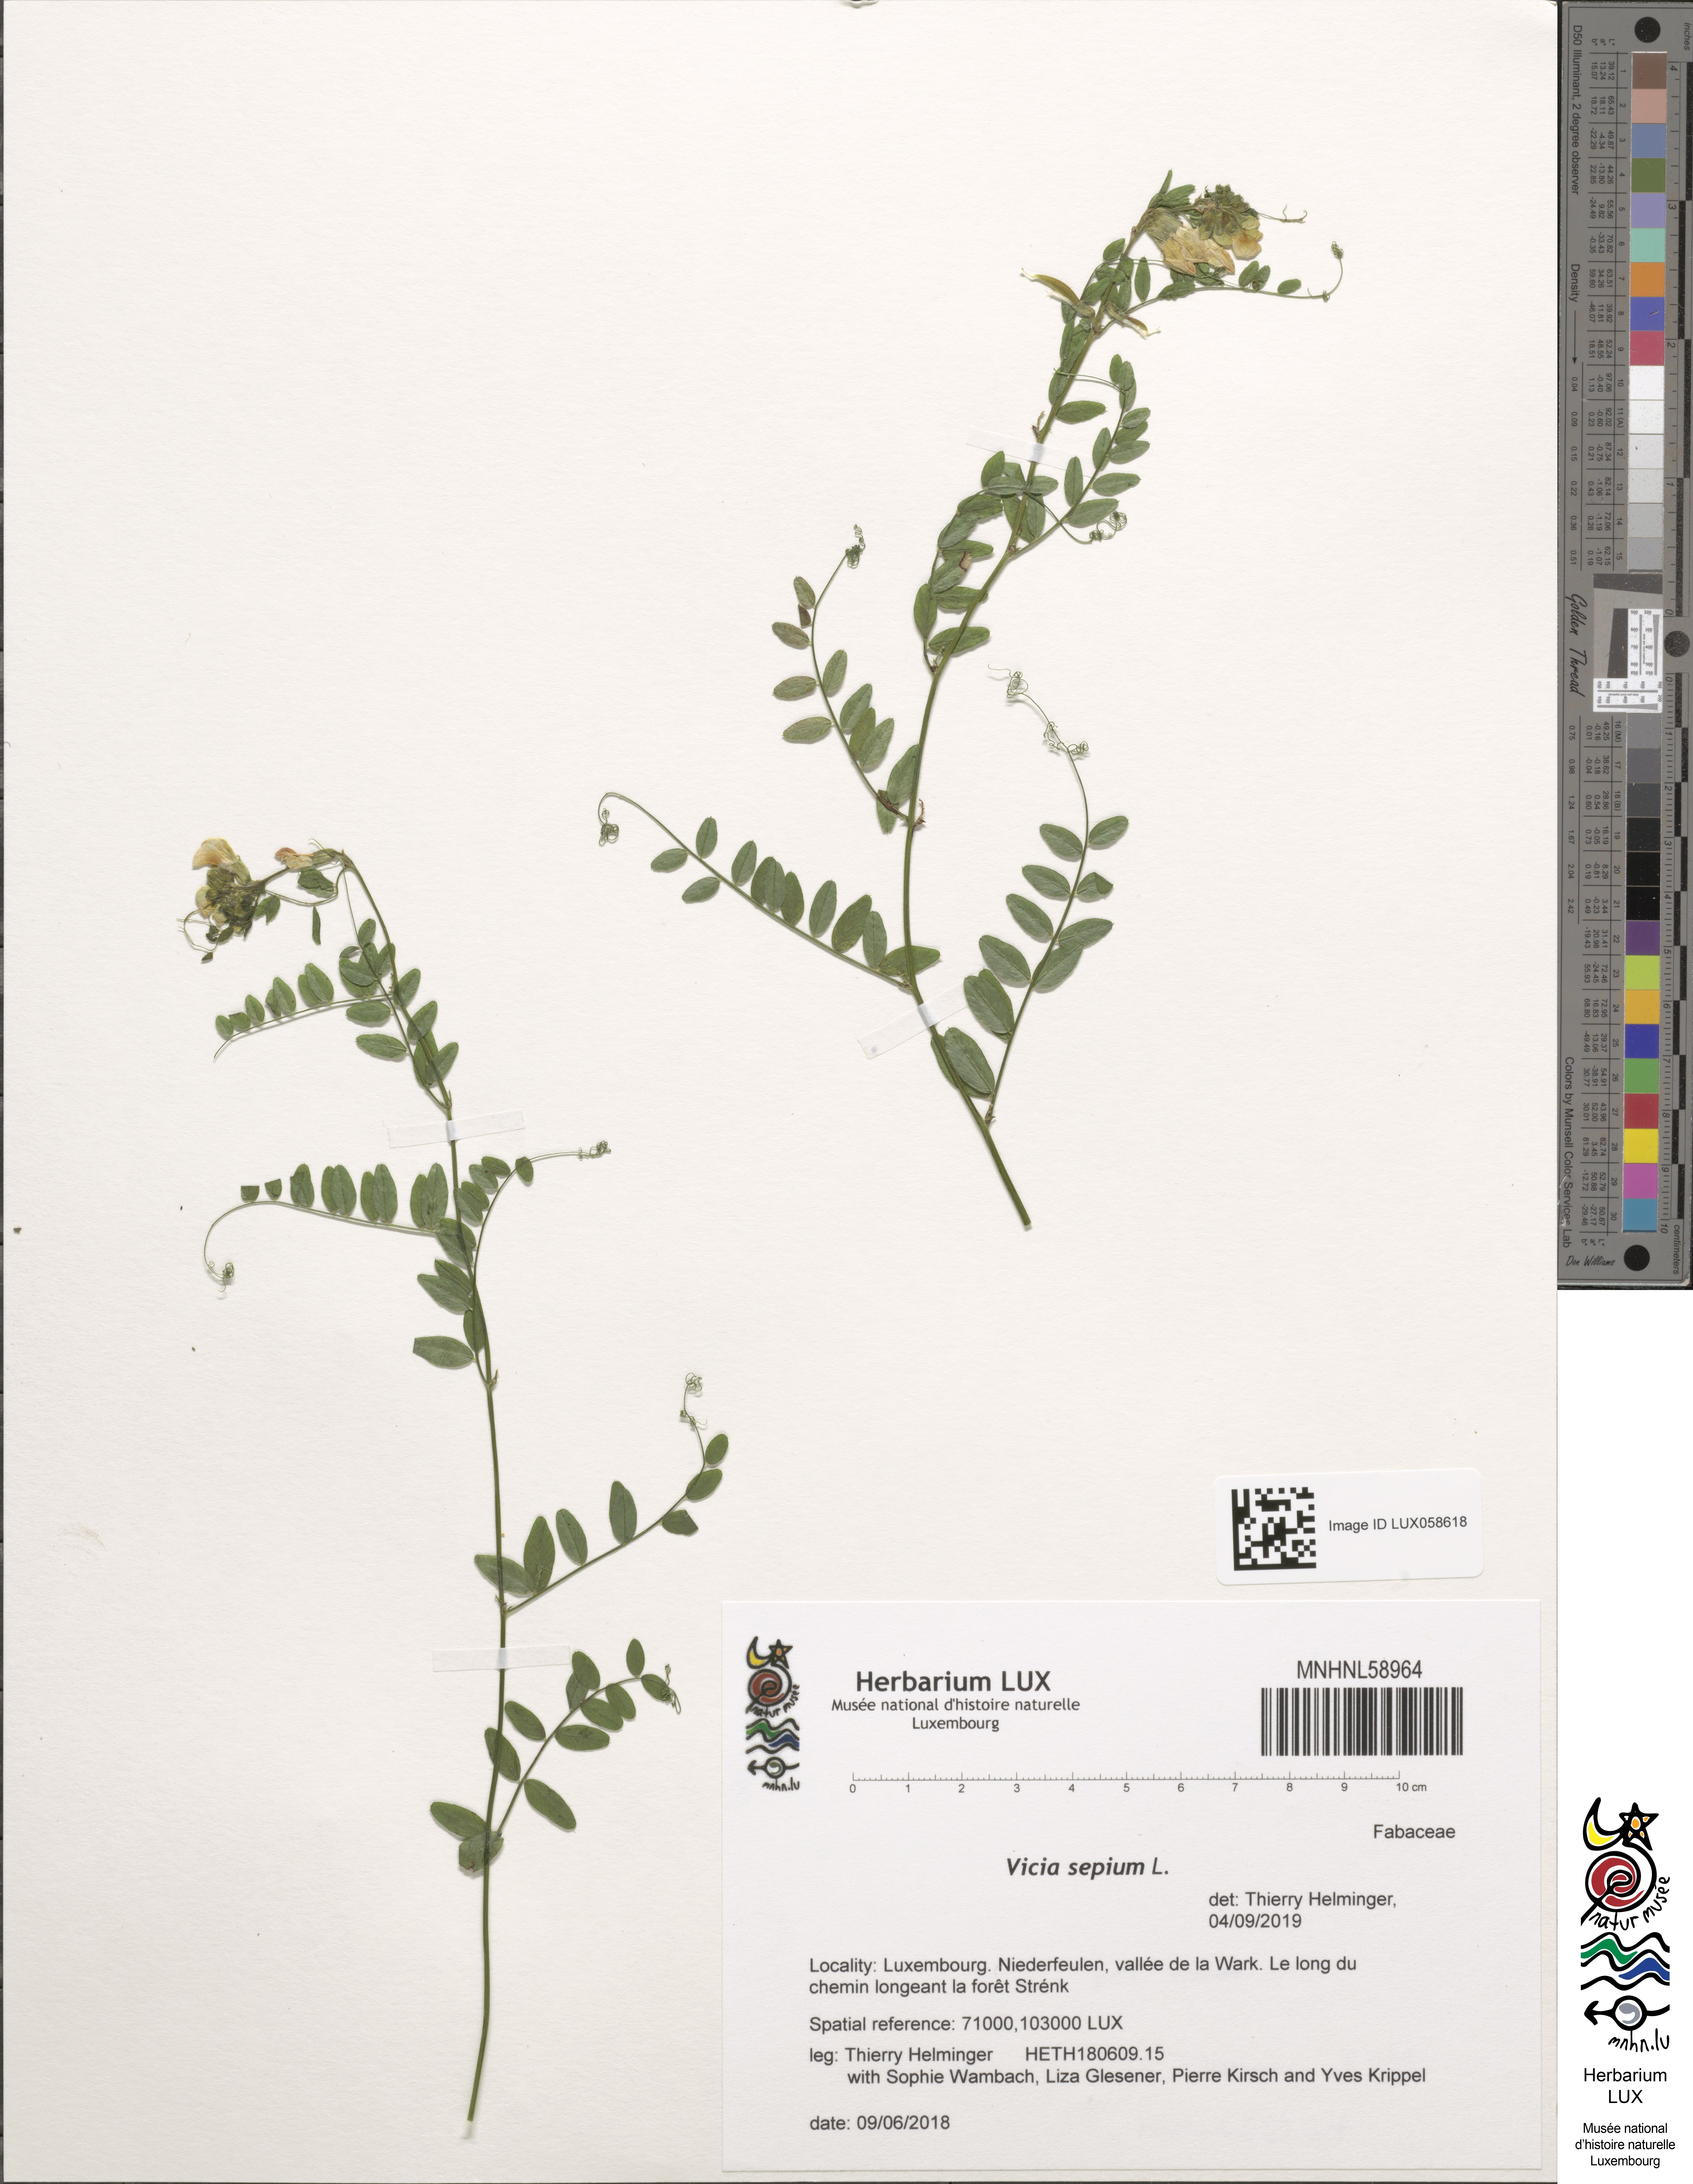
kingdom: Plantae
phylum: Tracheophyta
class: Magnoliopsida
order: Fabales
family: Fabaceae
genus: Vicia
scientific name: Vicia sepium
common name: Bush vetch
